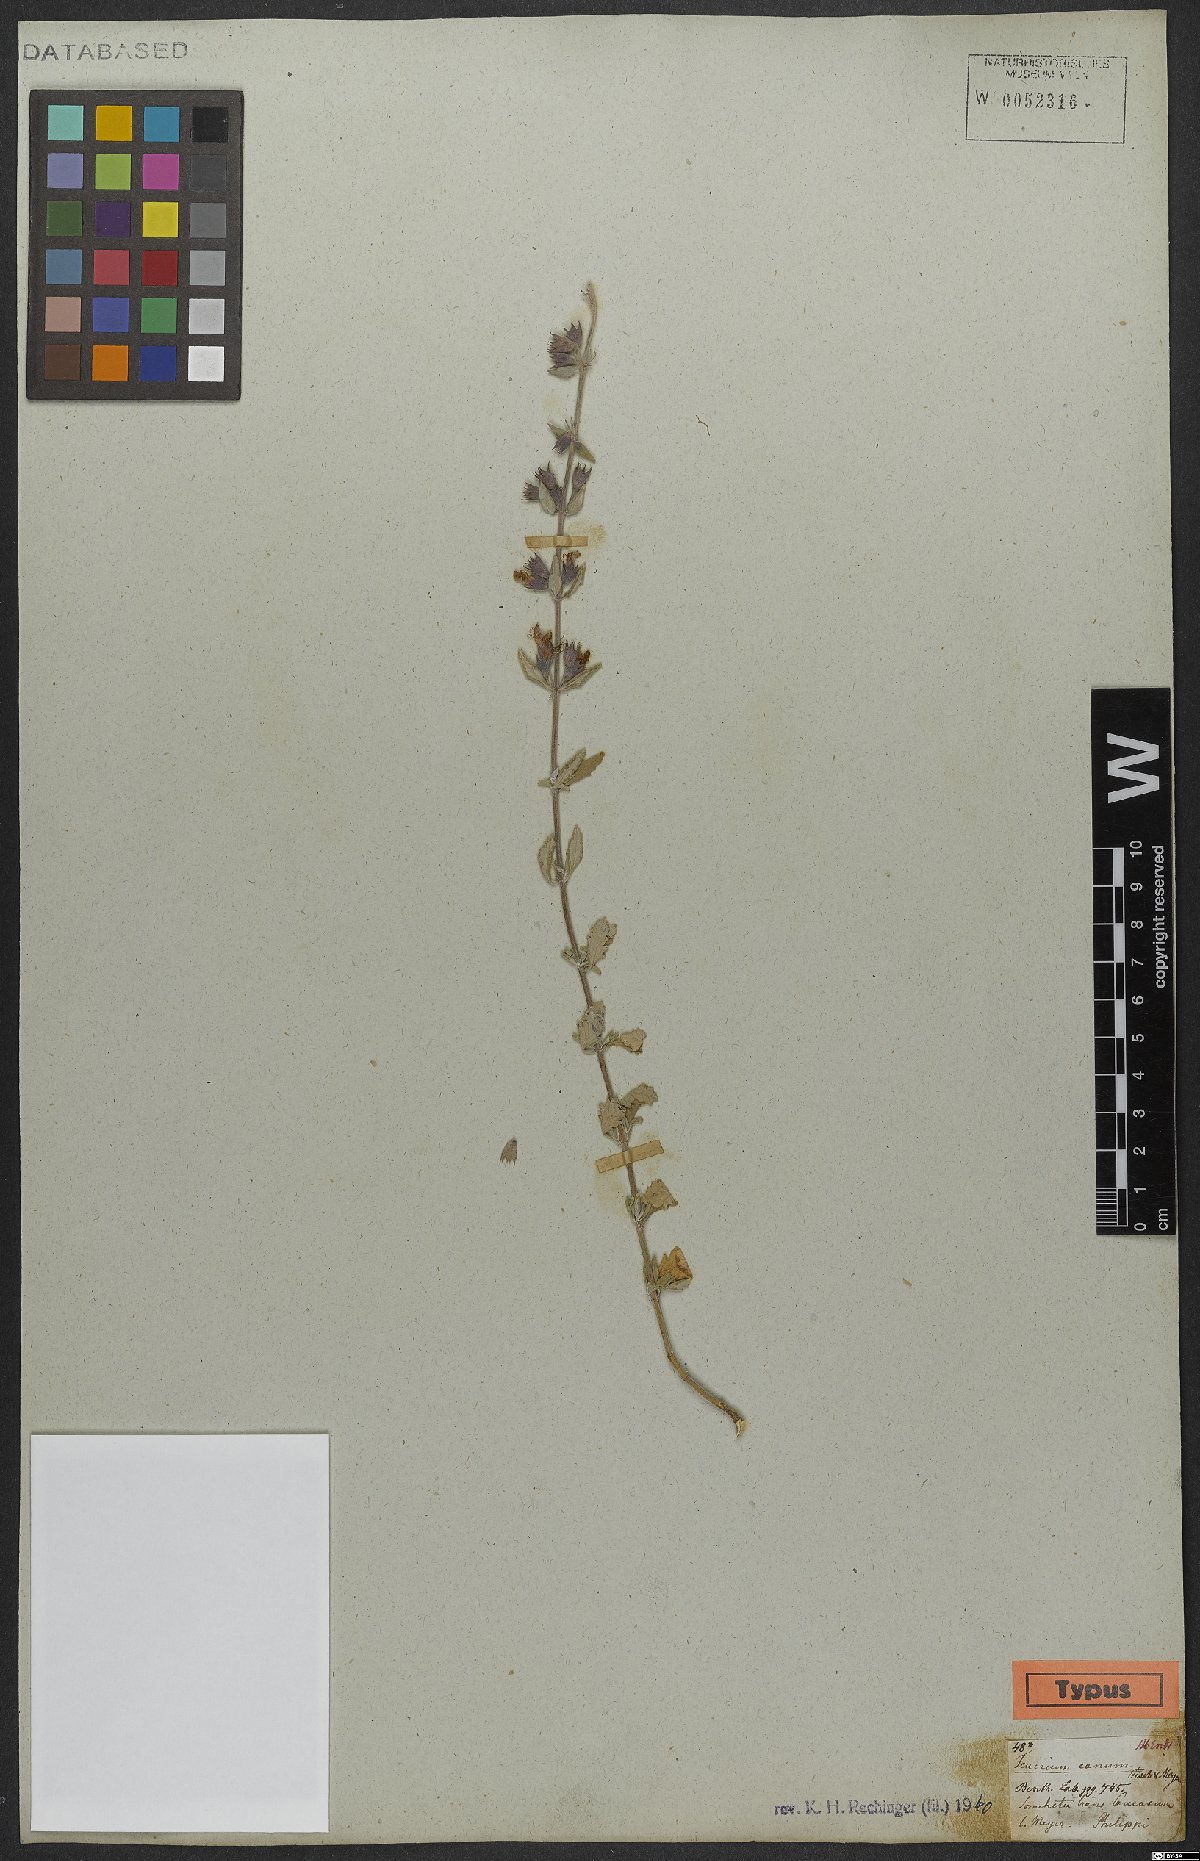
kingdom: Plantae
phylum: Tracheophyta
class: Magnoliopsida
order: Lamiales
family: Lamiaceae
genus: Teucrium
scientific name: Teucrium canum
